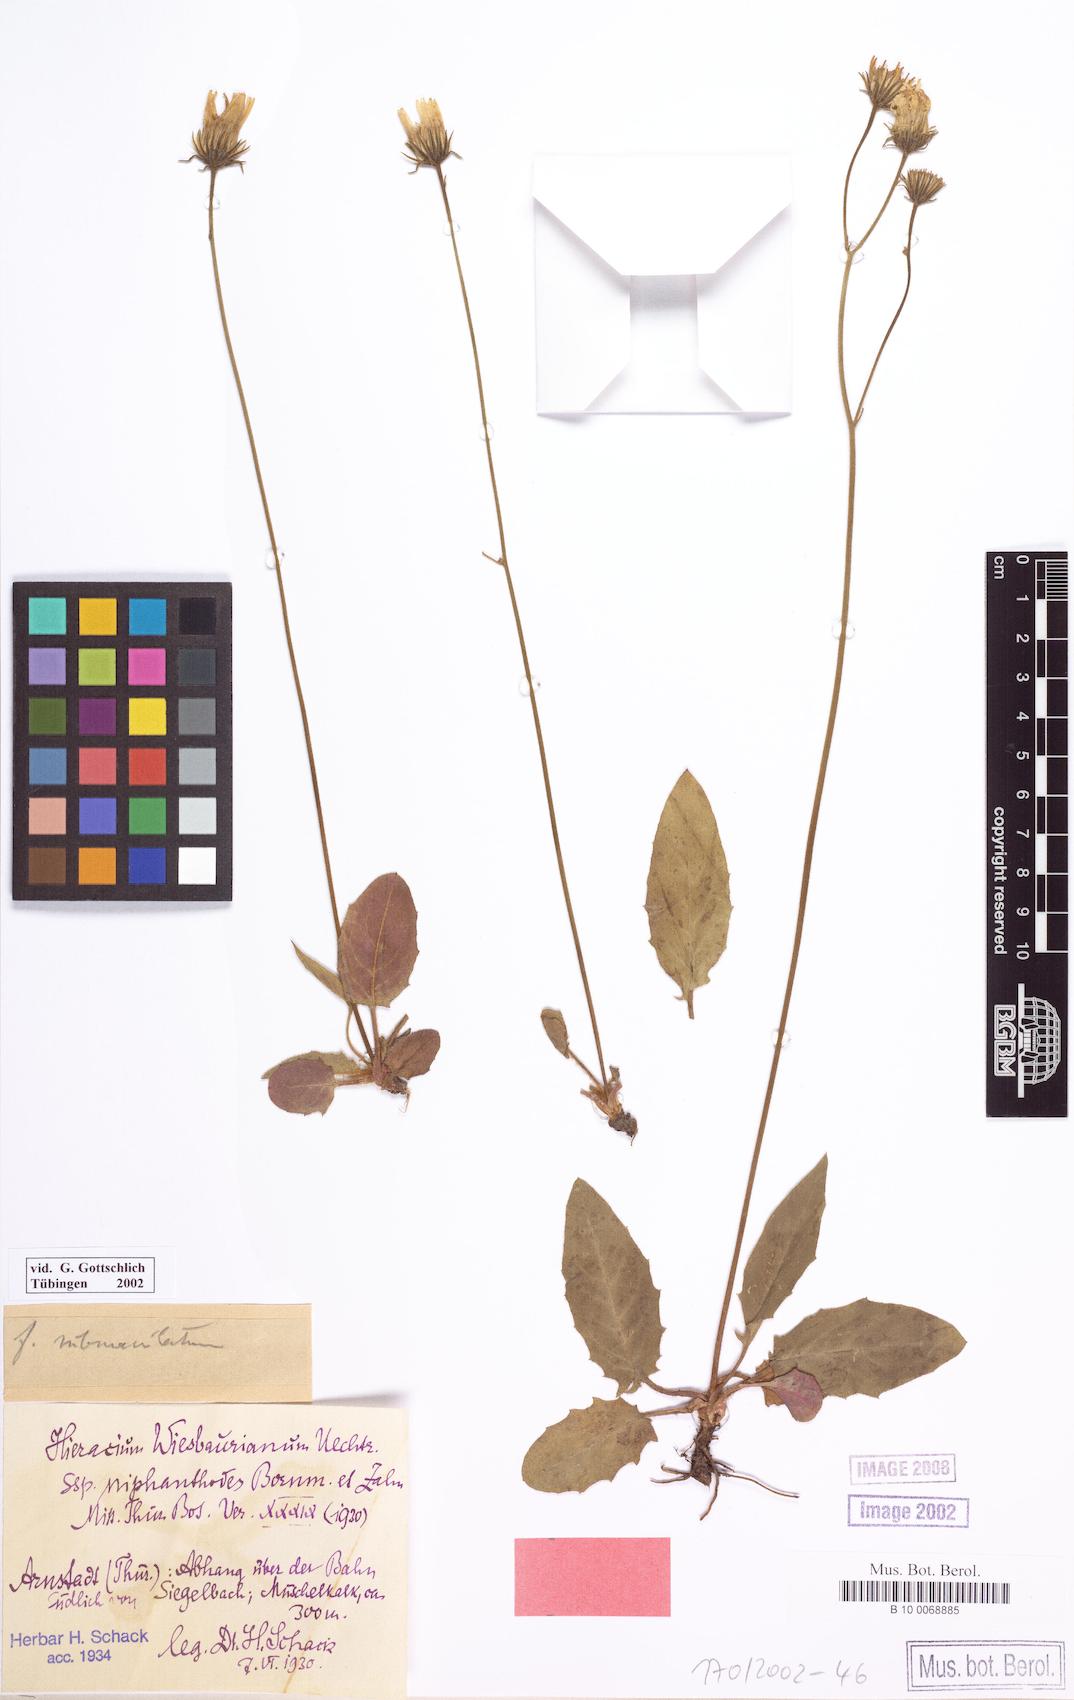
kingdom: Plantae
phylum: Tracheophyta
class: Magnoliopsida
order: Asterales
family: Asteraceae
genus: Hieracium
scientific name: Hieracium hypochoeroides
